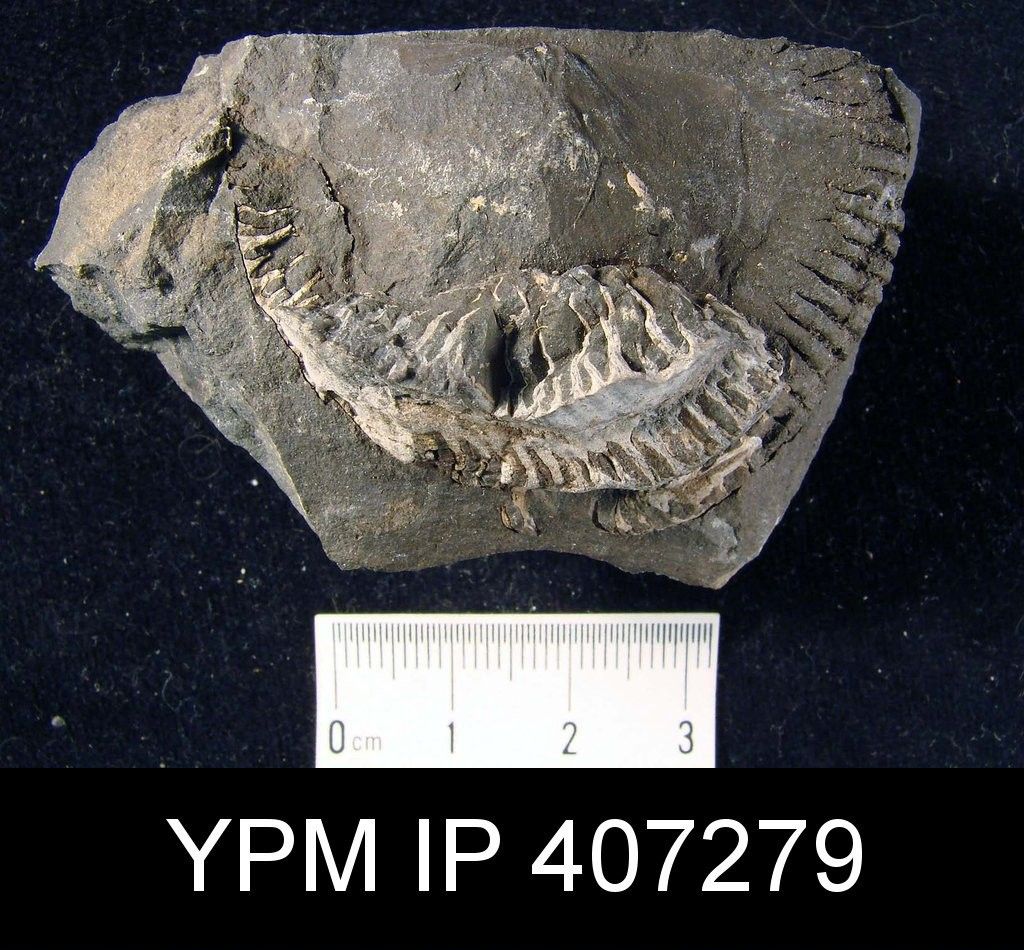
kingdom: Animalia
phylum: Brachiopoda
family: Stropheodontidae
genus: Strophodonta
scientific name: Strophodonta Strophomena leda
